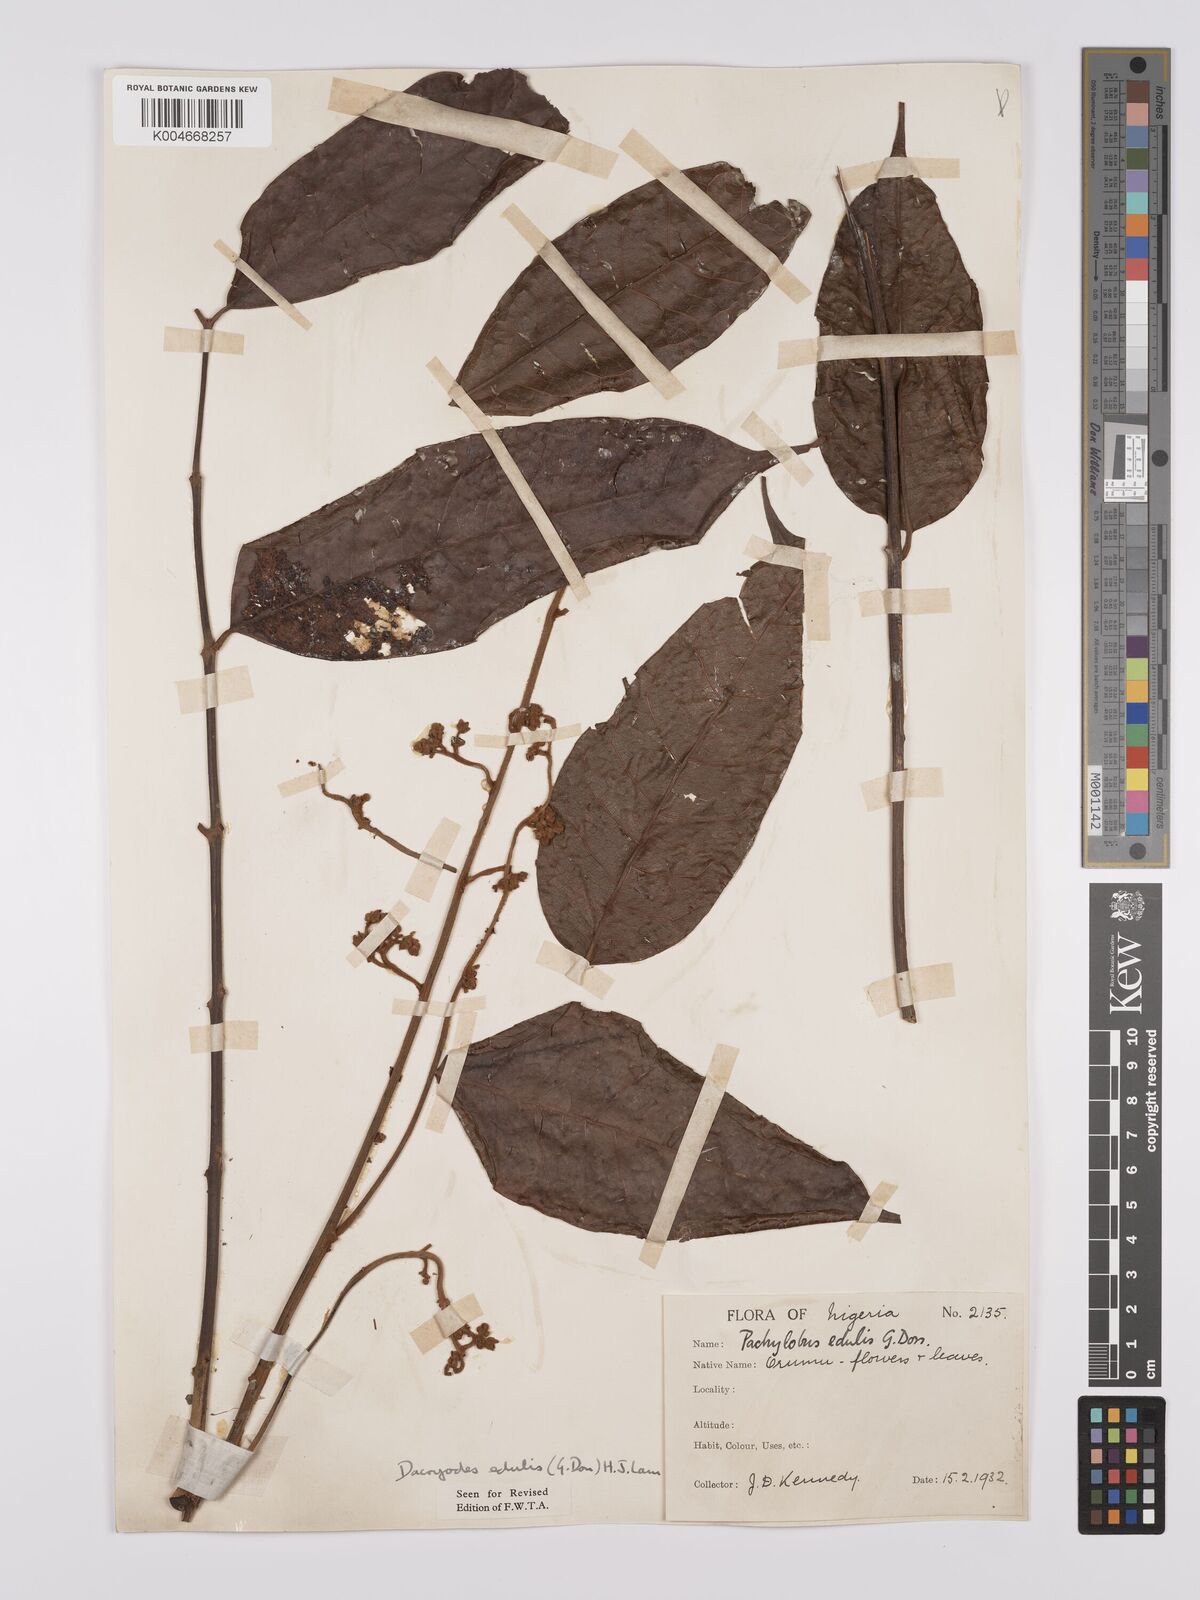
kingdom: Plantae
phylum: Tracheophyta
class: Magnoliopsida
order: Sapindales
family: Burseraceae
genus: Pachylobus
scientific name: Pachylobus edulis
